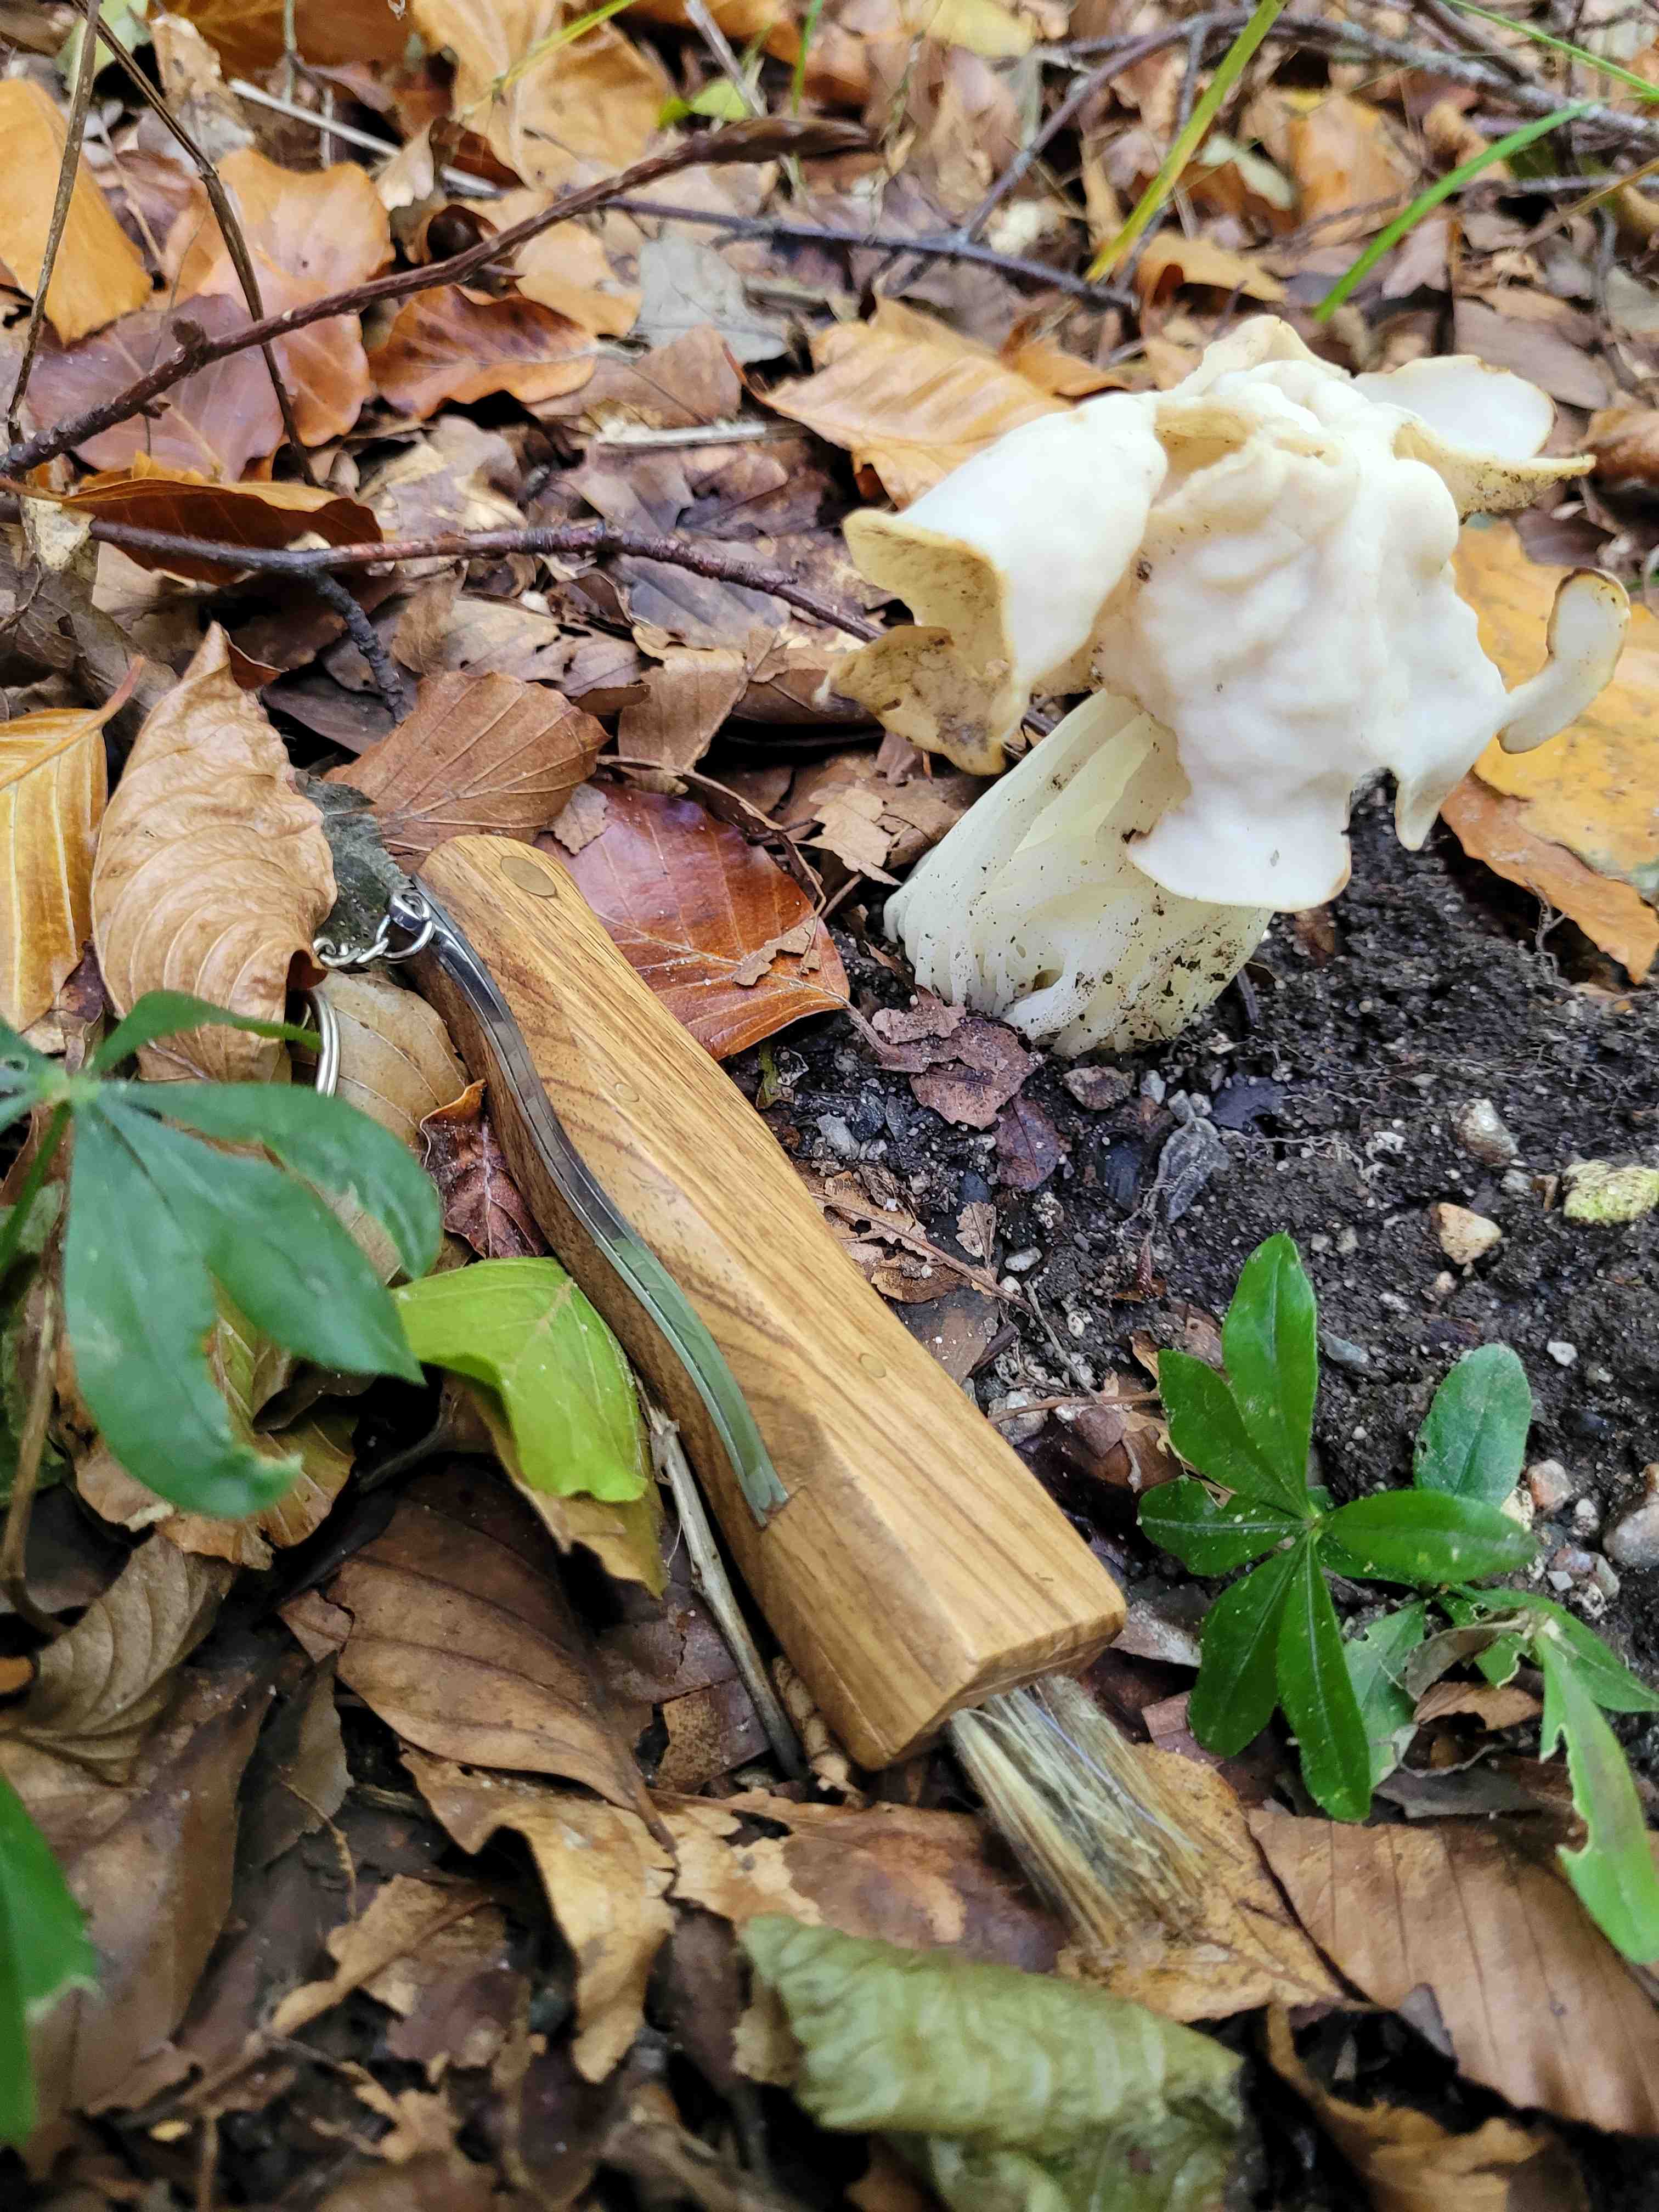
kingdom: Fungi
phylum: Ascomycota
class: Pezizomycetes
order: Pezizales
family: Helvellaceae
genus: Helvella
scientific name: Helvella crispa
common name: kruset foldhat
